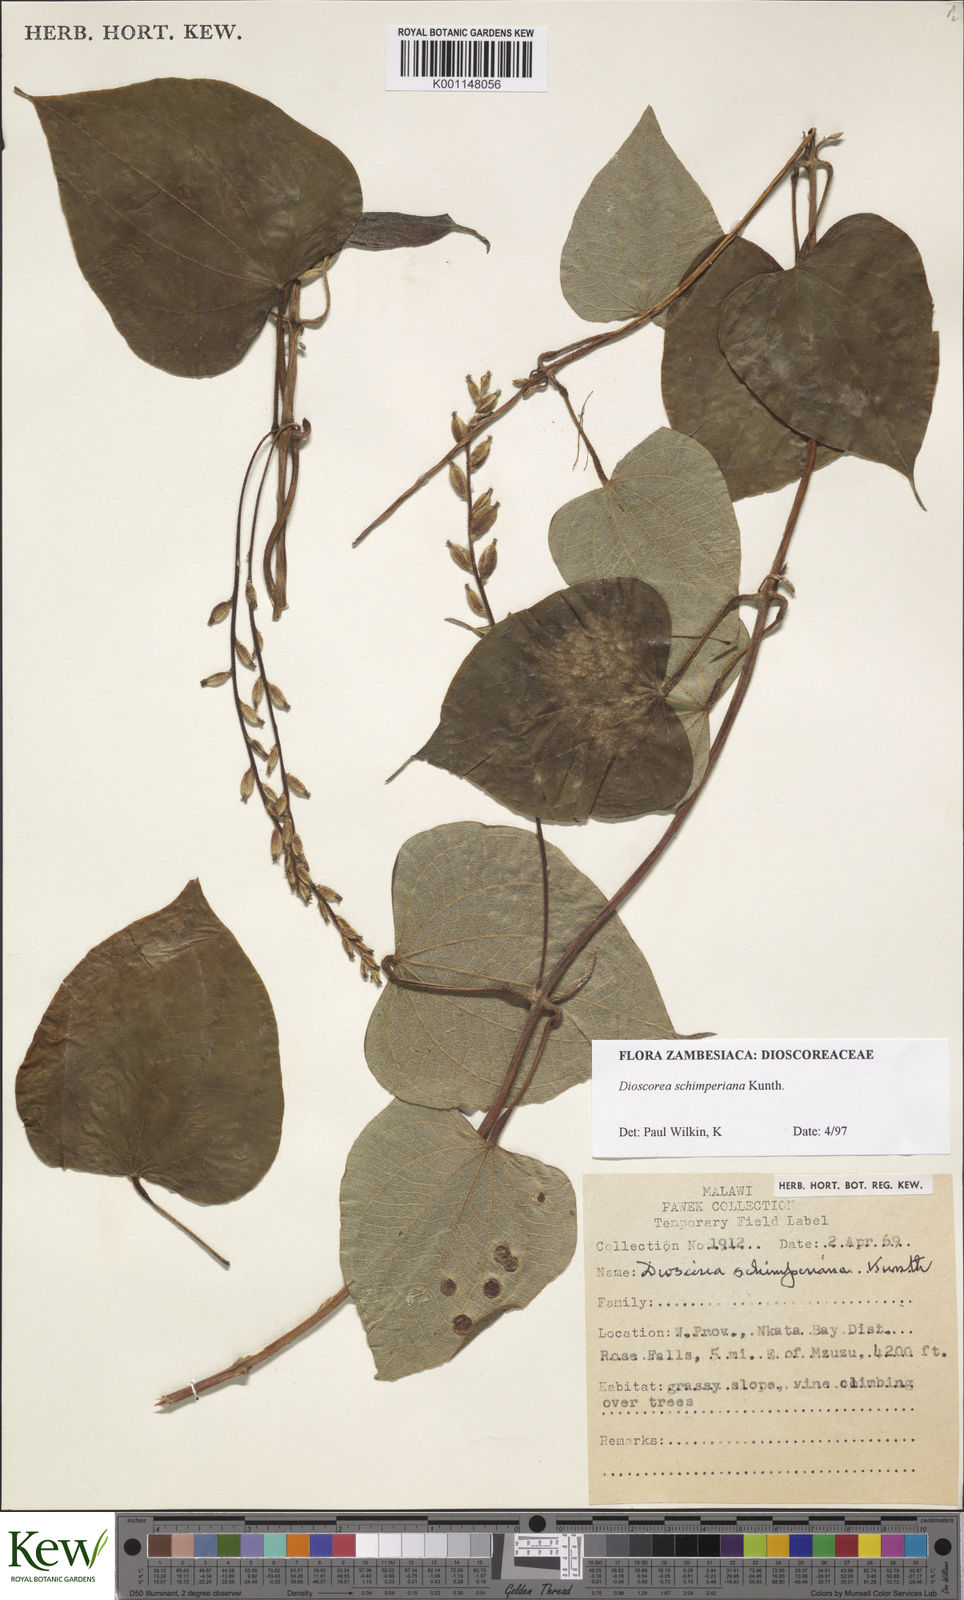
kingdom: Plantae
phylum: Tracheophyta
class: Liliopsida
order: Dioscoreales
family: Dioscoreaceae
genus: Dioscorea
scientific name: Dioscorea schimperiana
